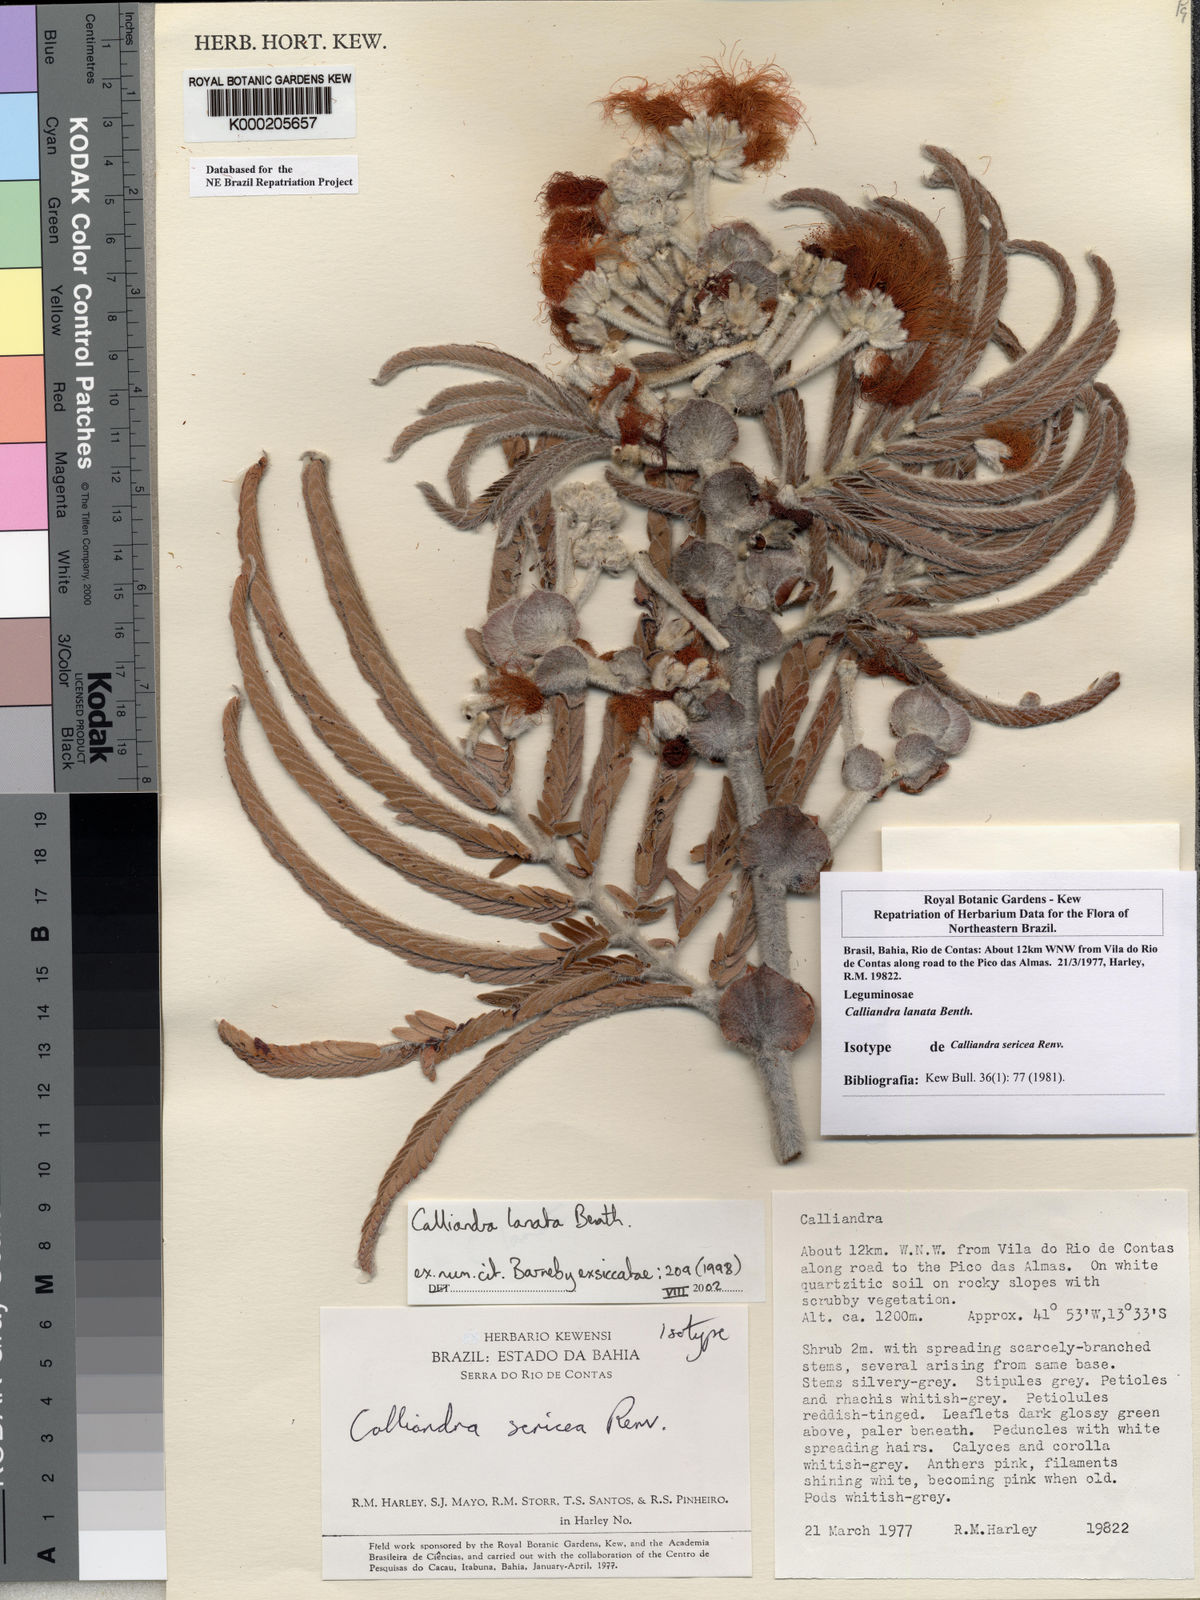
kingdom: Plantae
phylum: Tracheophyta
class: Magnoliopsida
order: Fabales
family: Fabaceae
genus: Calliandra
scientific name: Calliandra lanata
